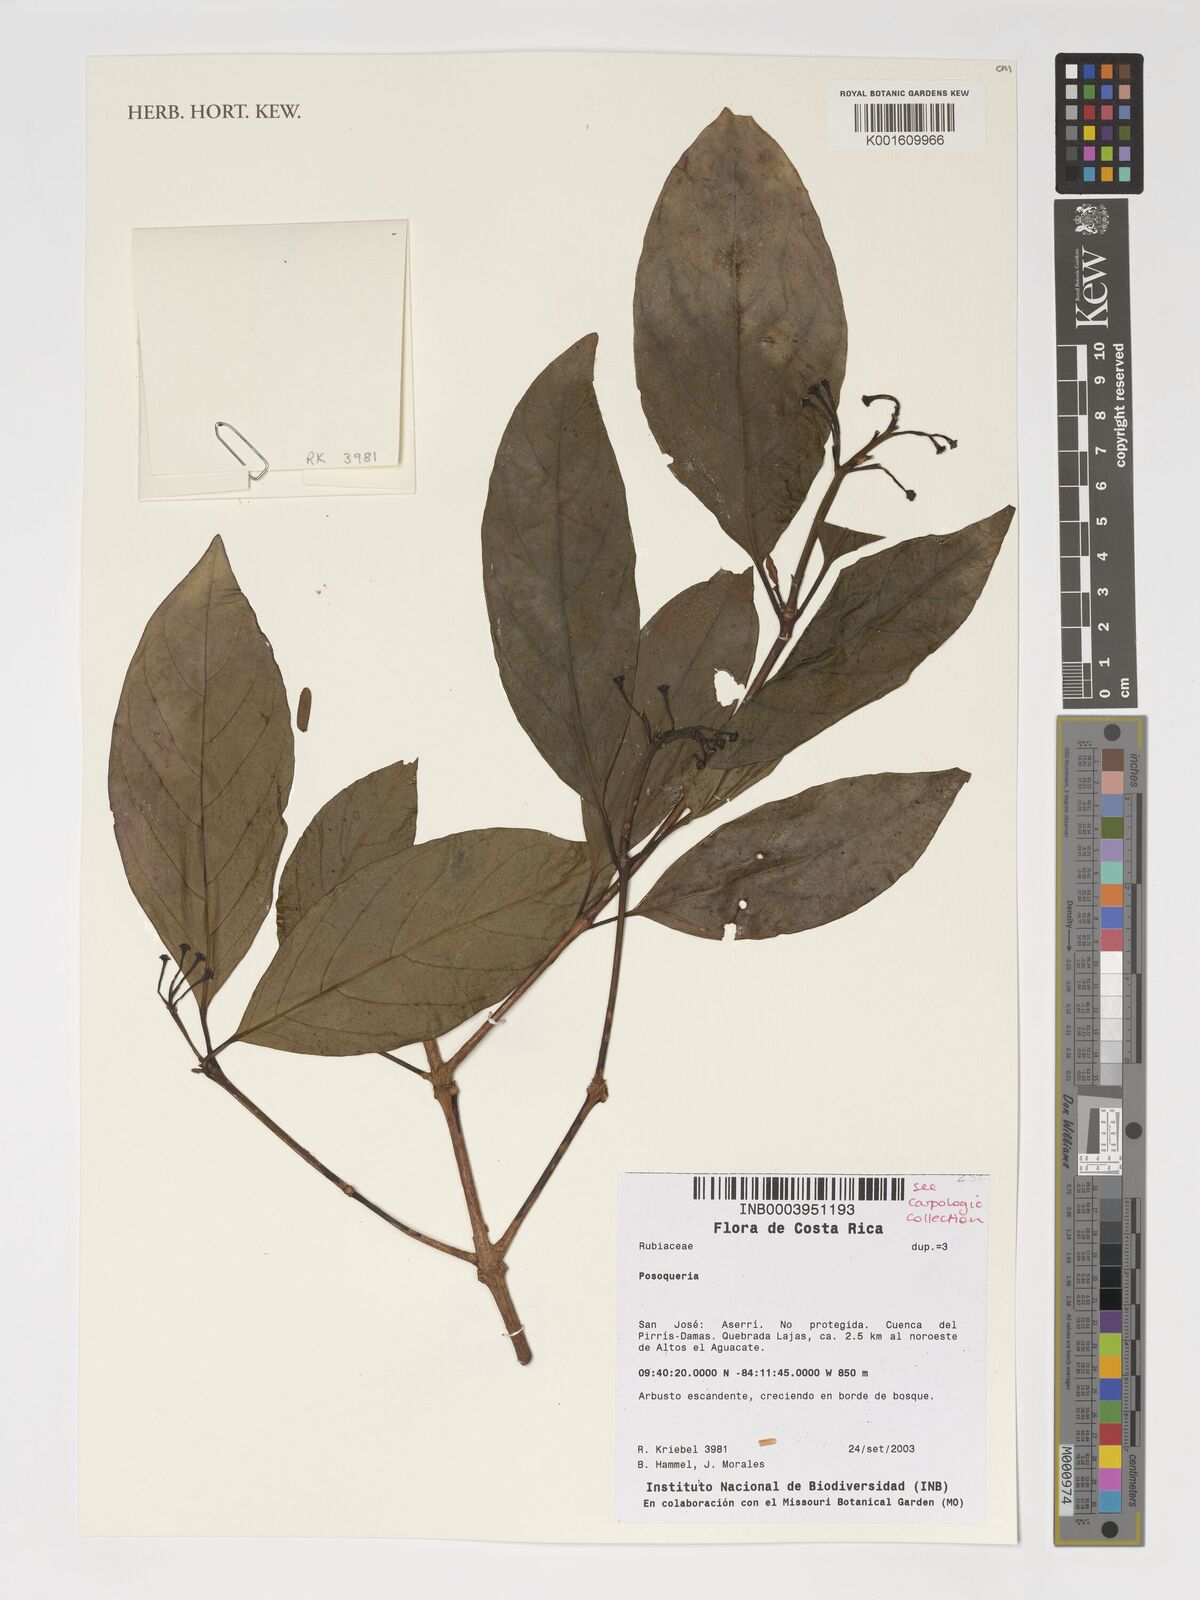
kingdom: Plantae
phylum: Tracheophyta
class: Magnoliopsida
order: Gentianales
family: Rubiaceae
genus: Posoqueria
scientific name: Posoqueria
